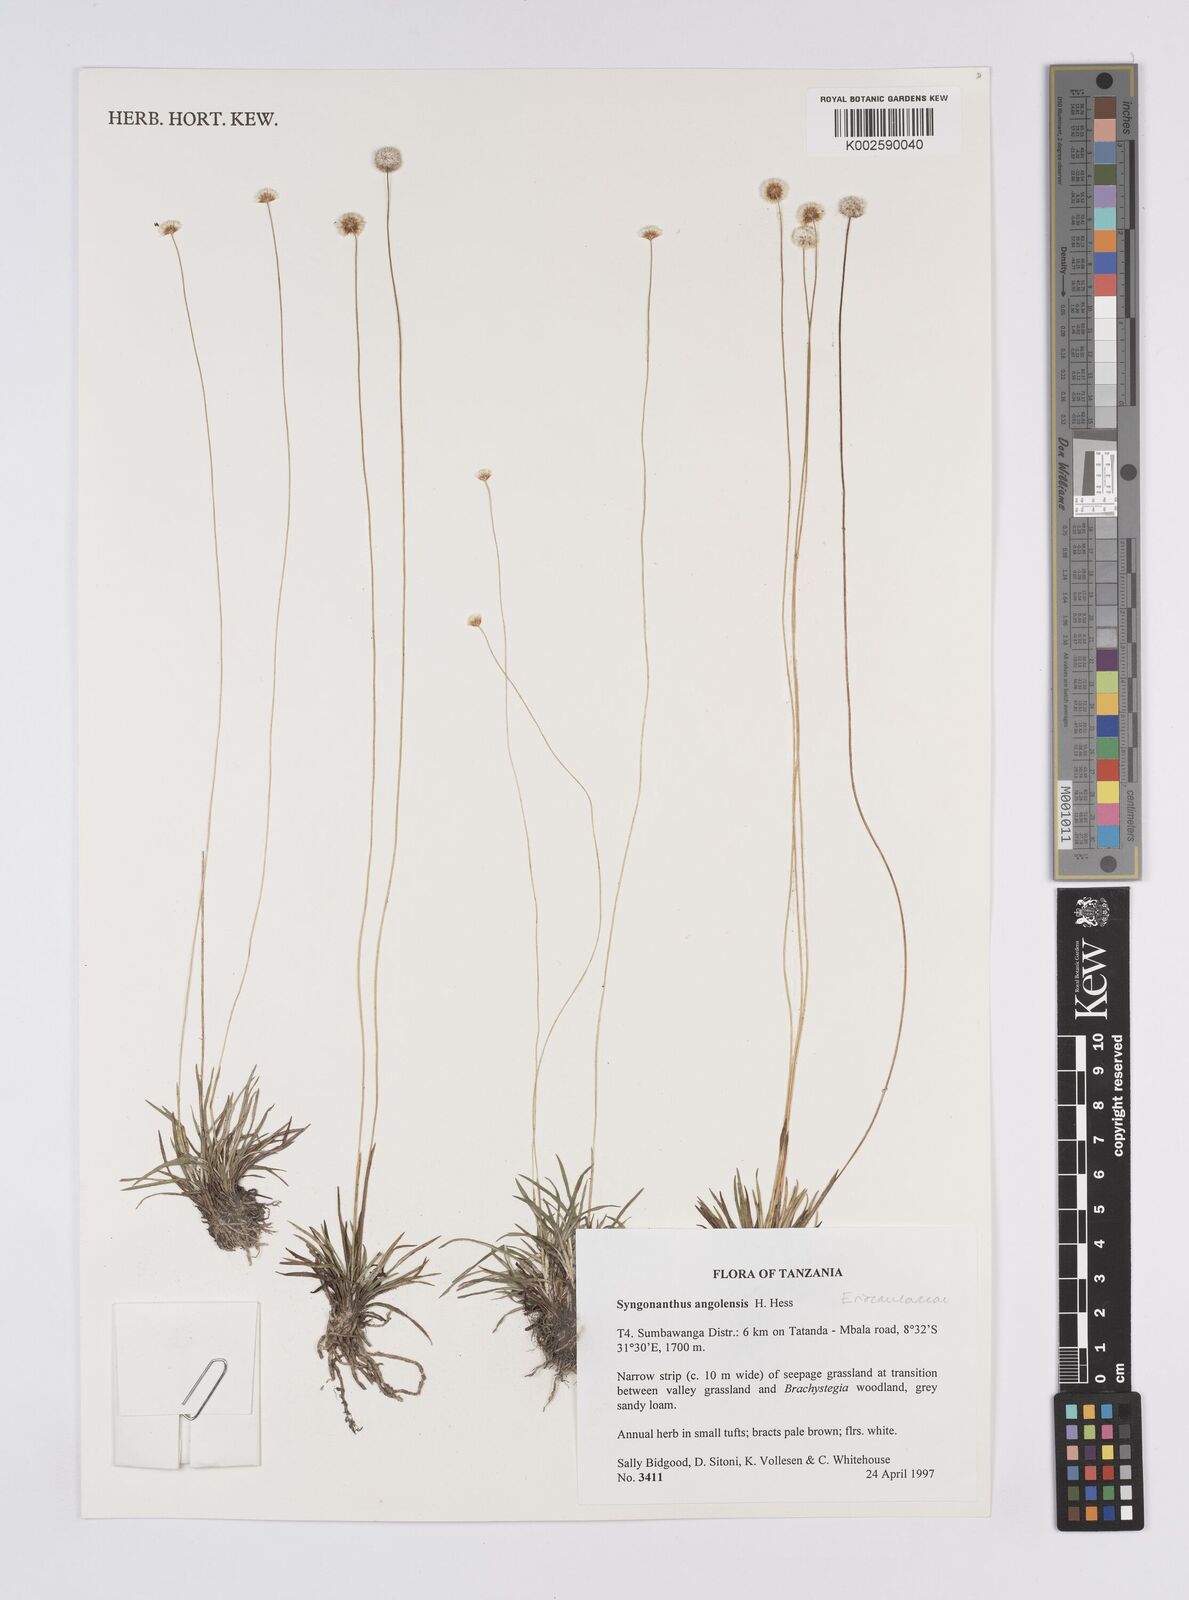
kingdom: Plantae
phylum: Tracheophyta
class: Liliopsida
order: Poales
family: Eriocaulaceae
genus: Syngonanthus
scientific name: Syngonanthus angolensis
